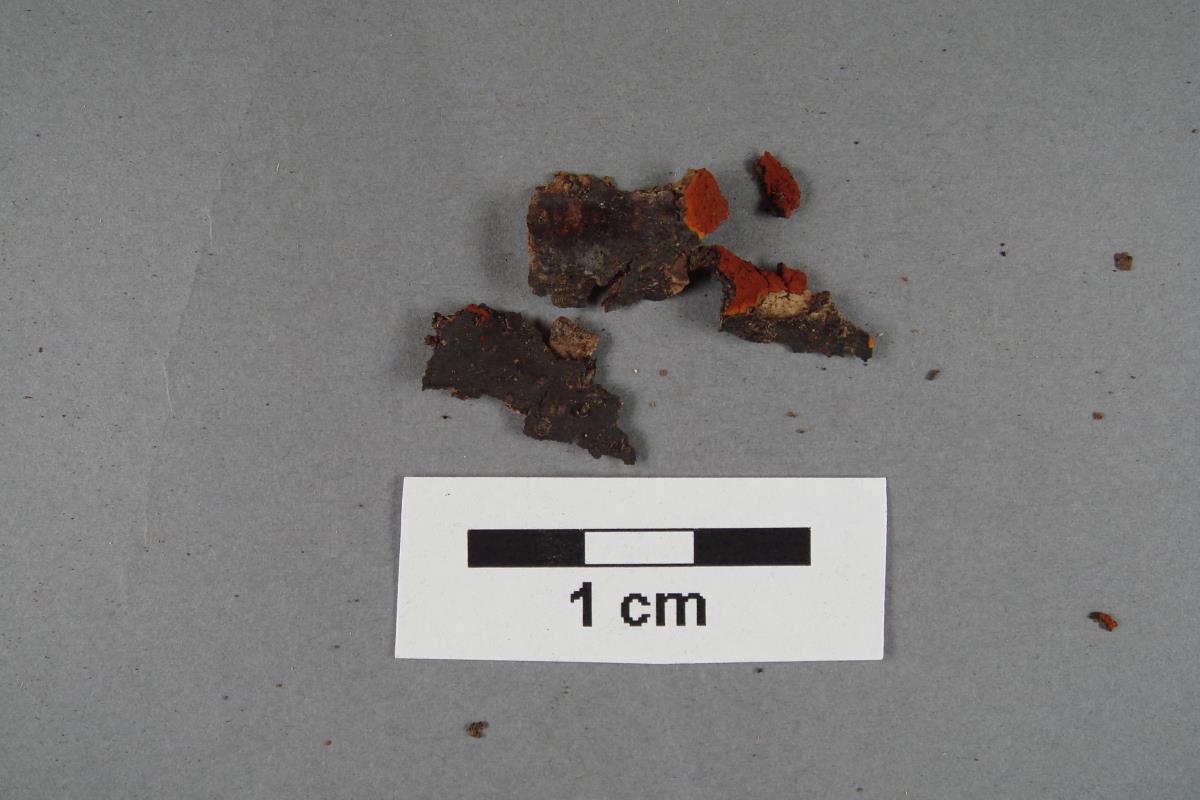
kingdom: Fungi
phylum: Ascomycota
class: Sordariomycetes
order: Xylariales
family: Hypoxylaceae
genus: Hypoxylon
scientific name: Hypoxylon crocopeplum
